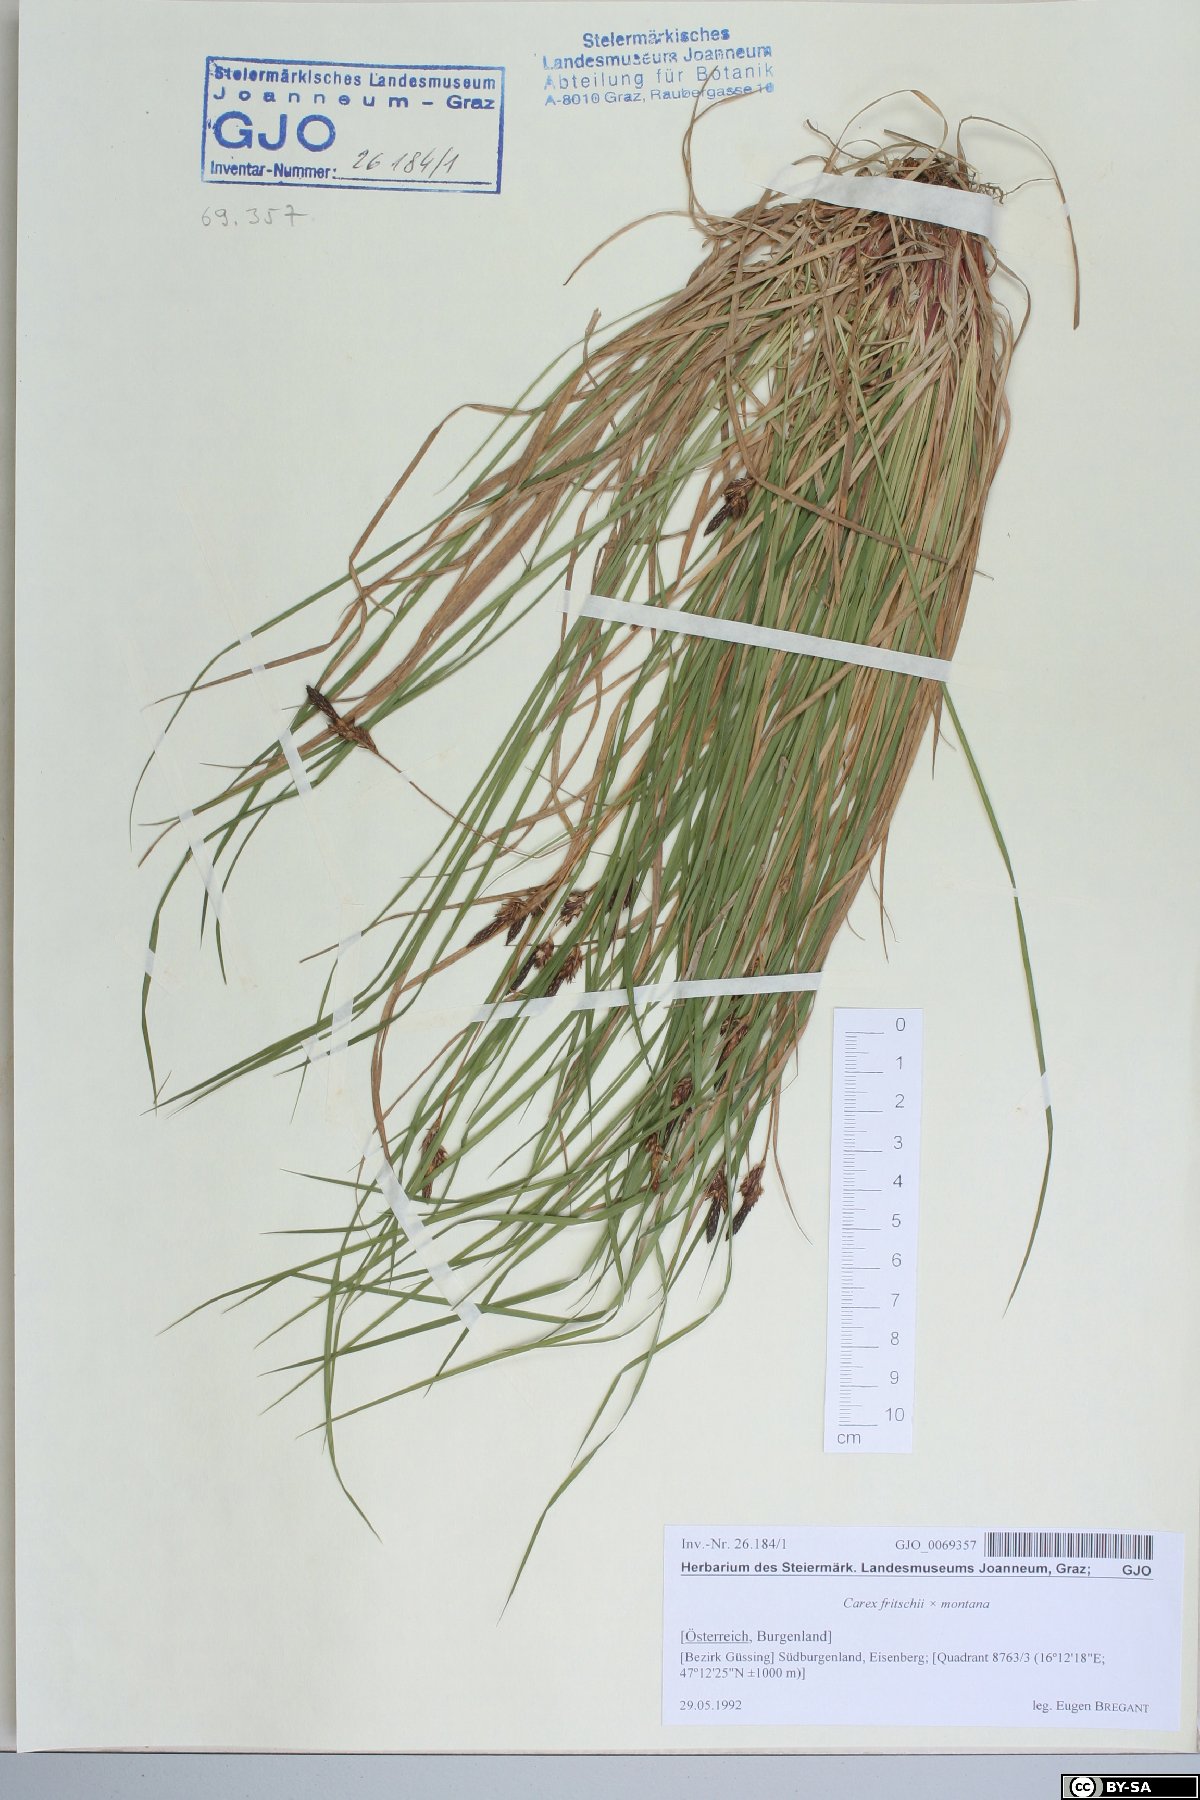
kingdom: Plantae
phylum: Tracheophyta
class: Liliopsida
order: Poales
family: Cyperaceae
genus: Carex
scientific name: Carex fritschii
